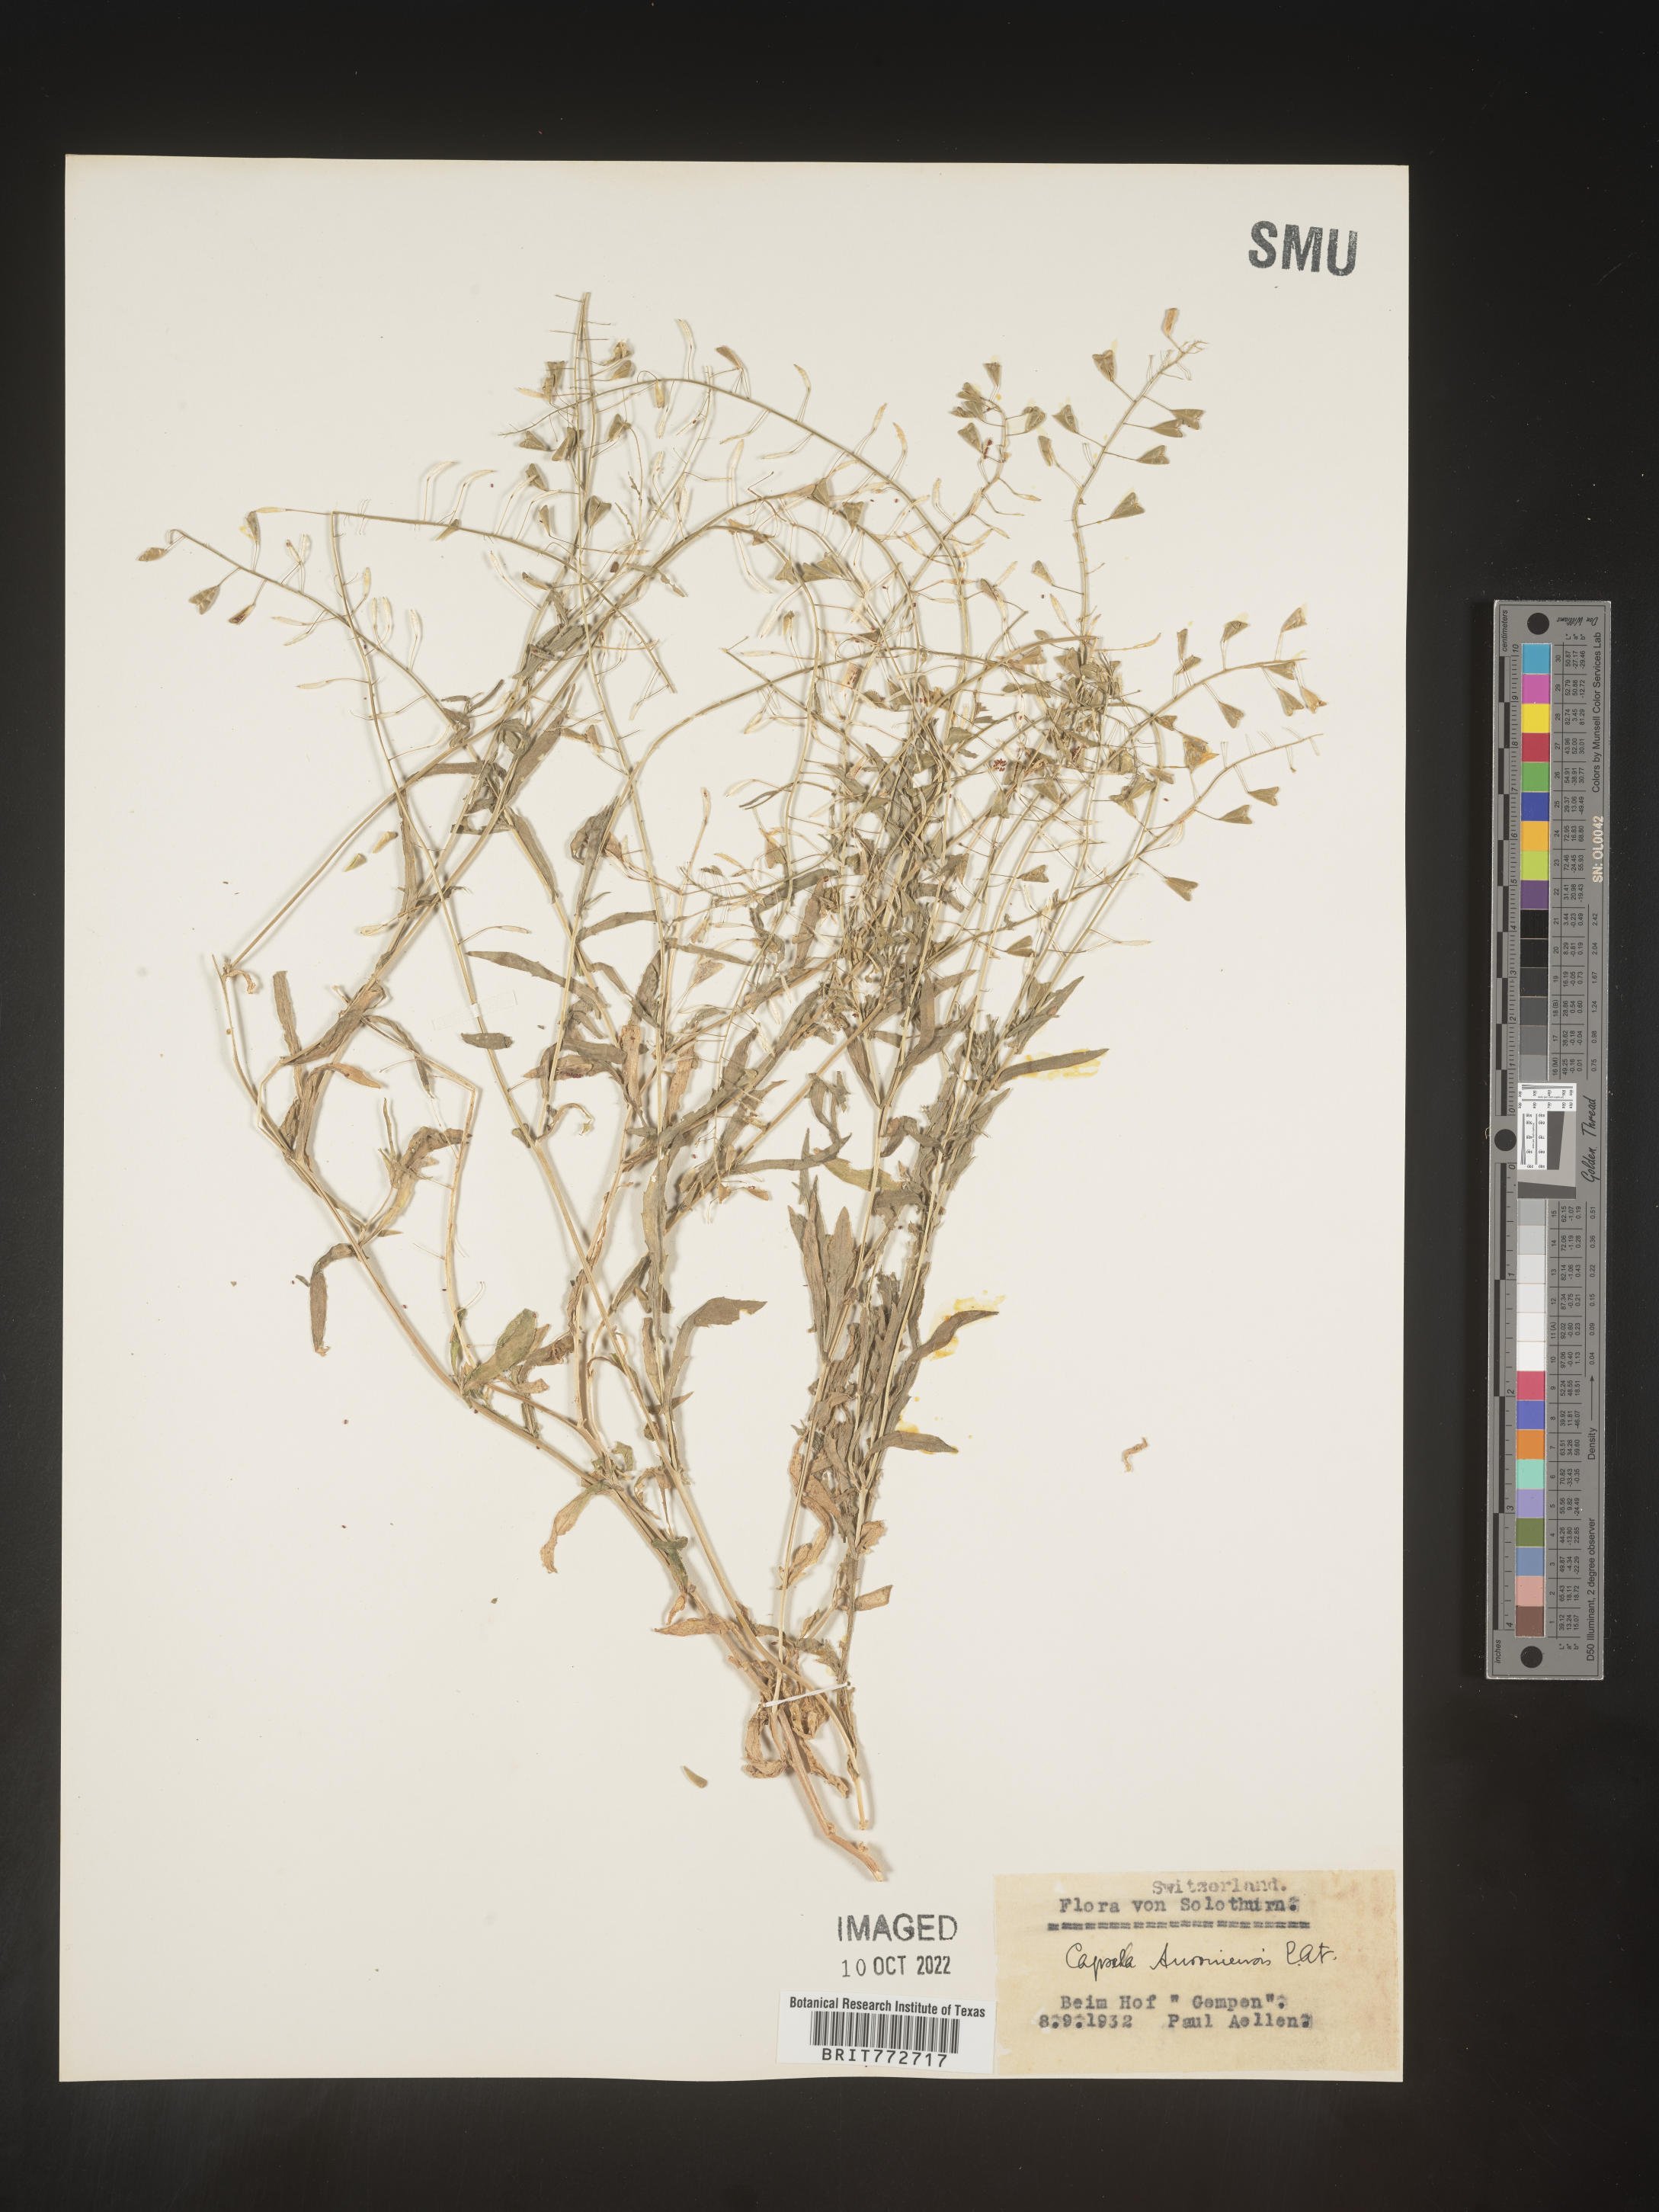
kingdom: Plantae
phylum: Tracheophyta
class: Magnoliopsida
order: Brassicales
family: Brassicaceae
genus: Capsella
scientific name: Capsella
